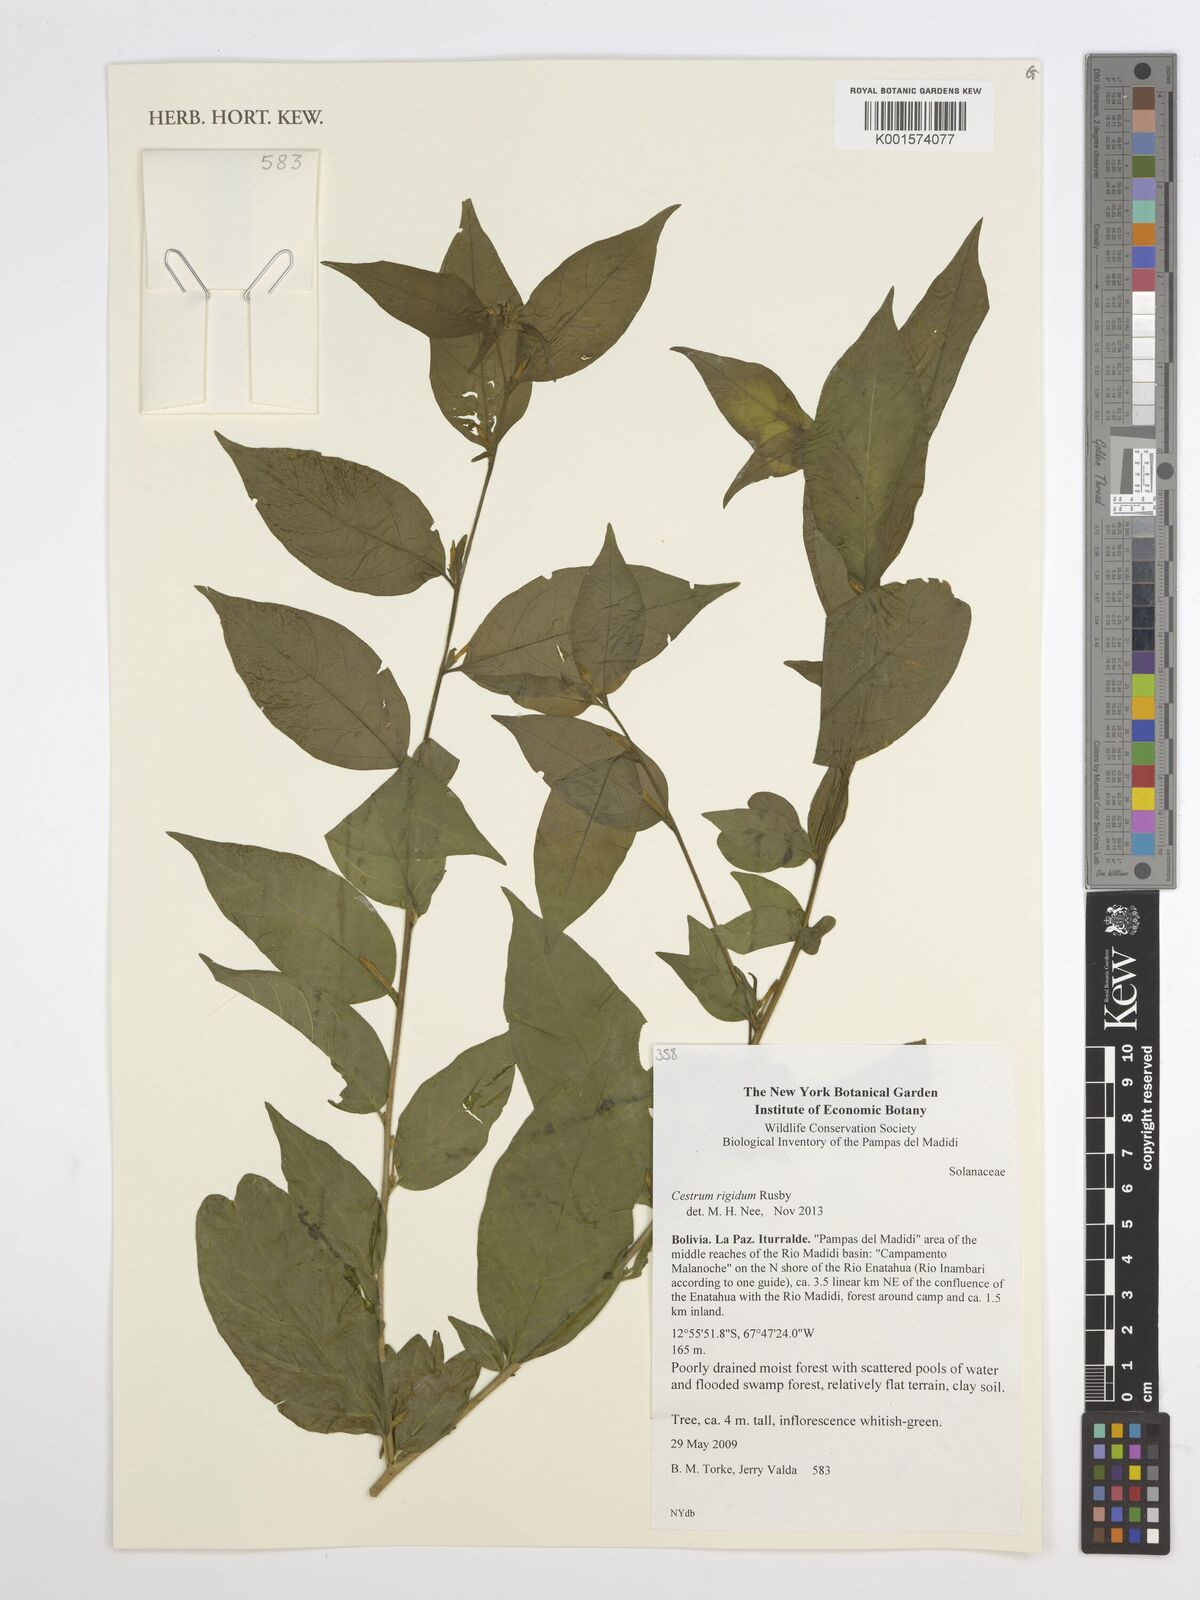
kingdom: Plantae
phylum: Tracheophyta
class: Magnoliopsida
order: Solanales
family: Solanaceae
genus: Cestrum
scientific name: Cestrum rigidum
